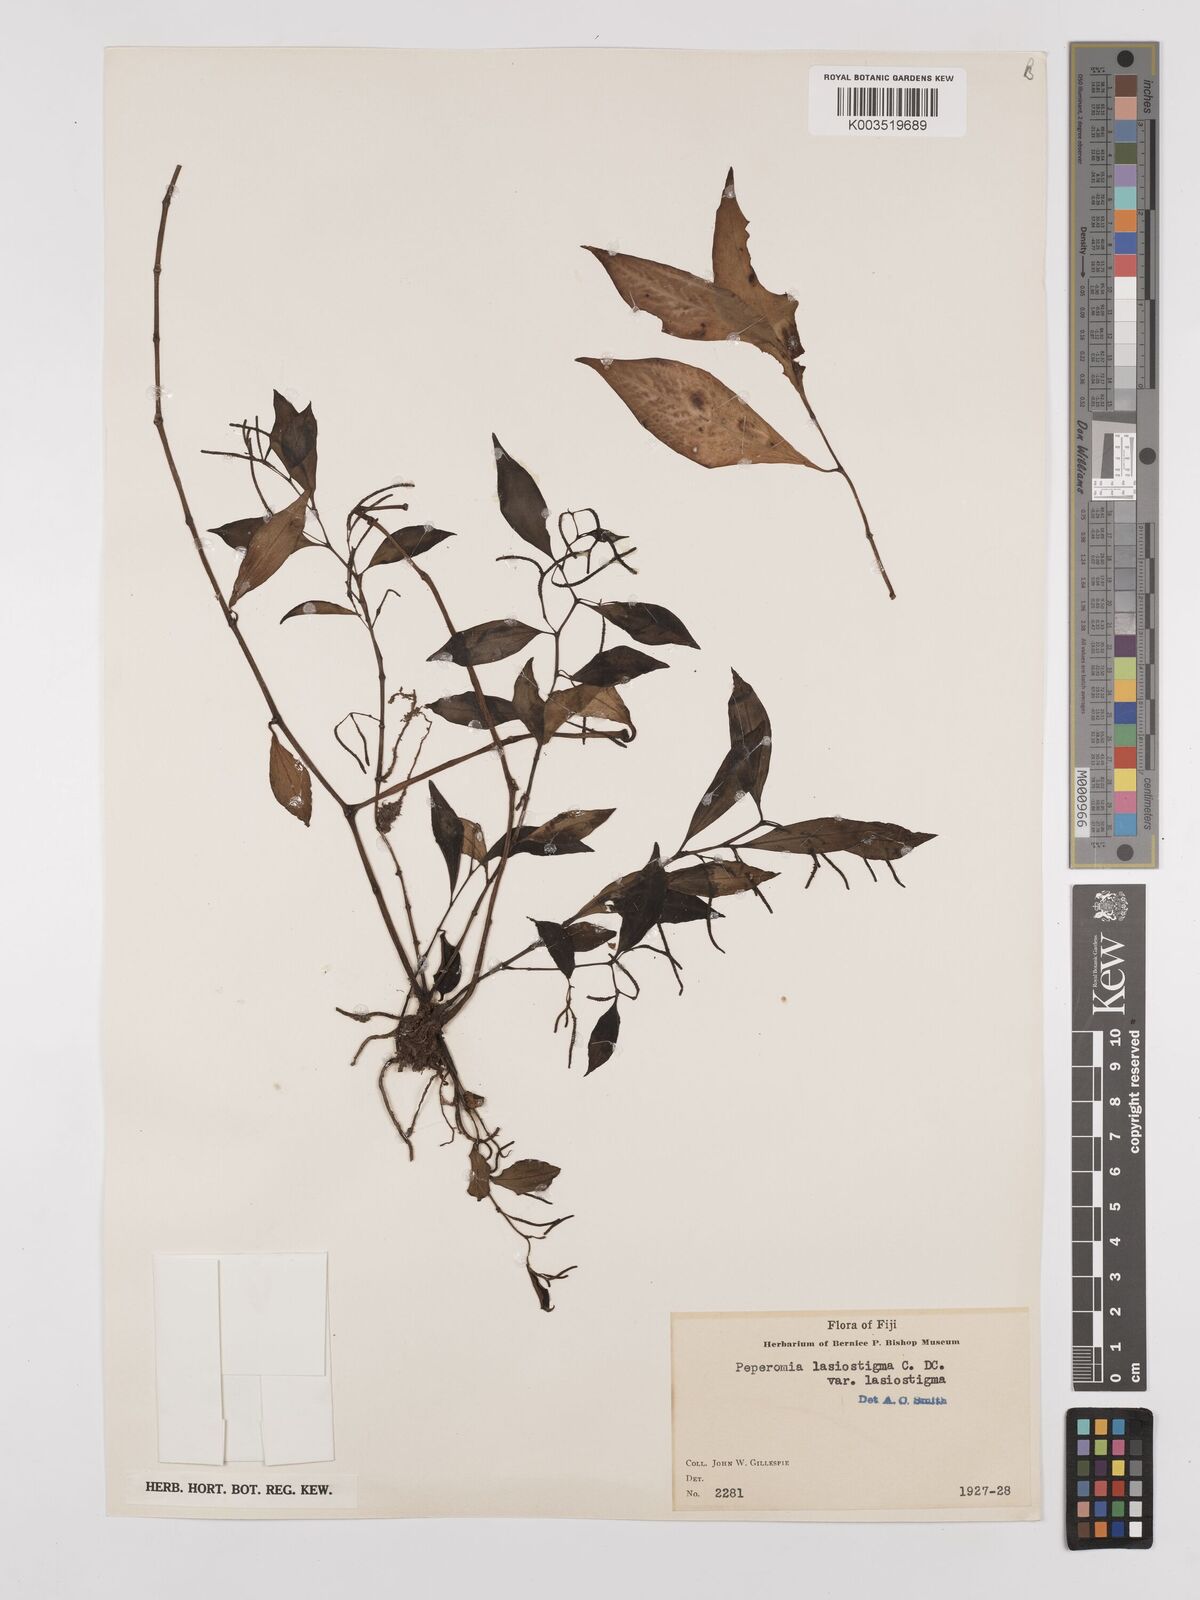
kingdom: Plantae
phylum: Tracheophyta
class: Magnoliopsida
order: Piperales
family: Piperaceae
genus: Peperomia
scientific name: Peperomia lasiostigma
